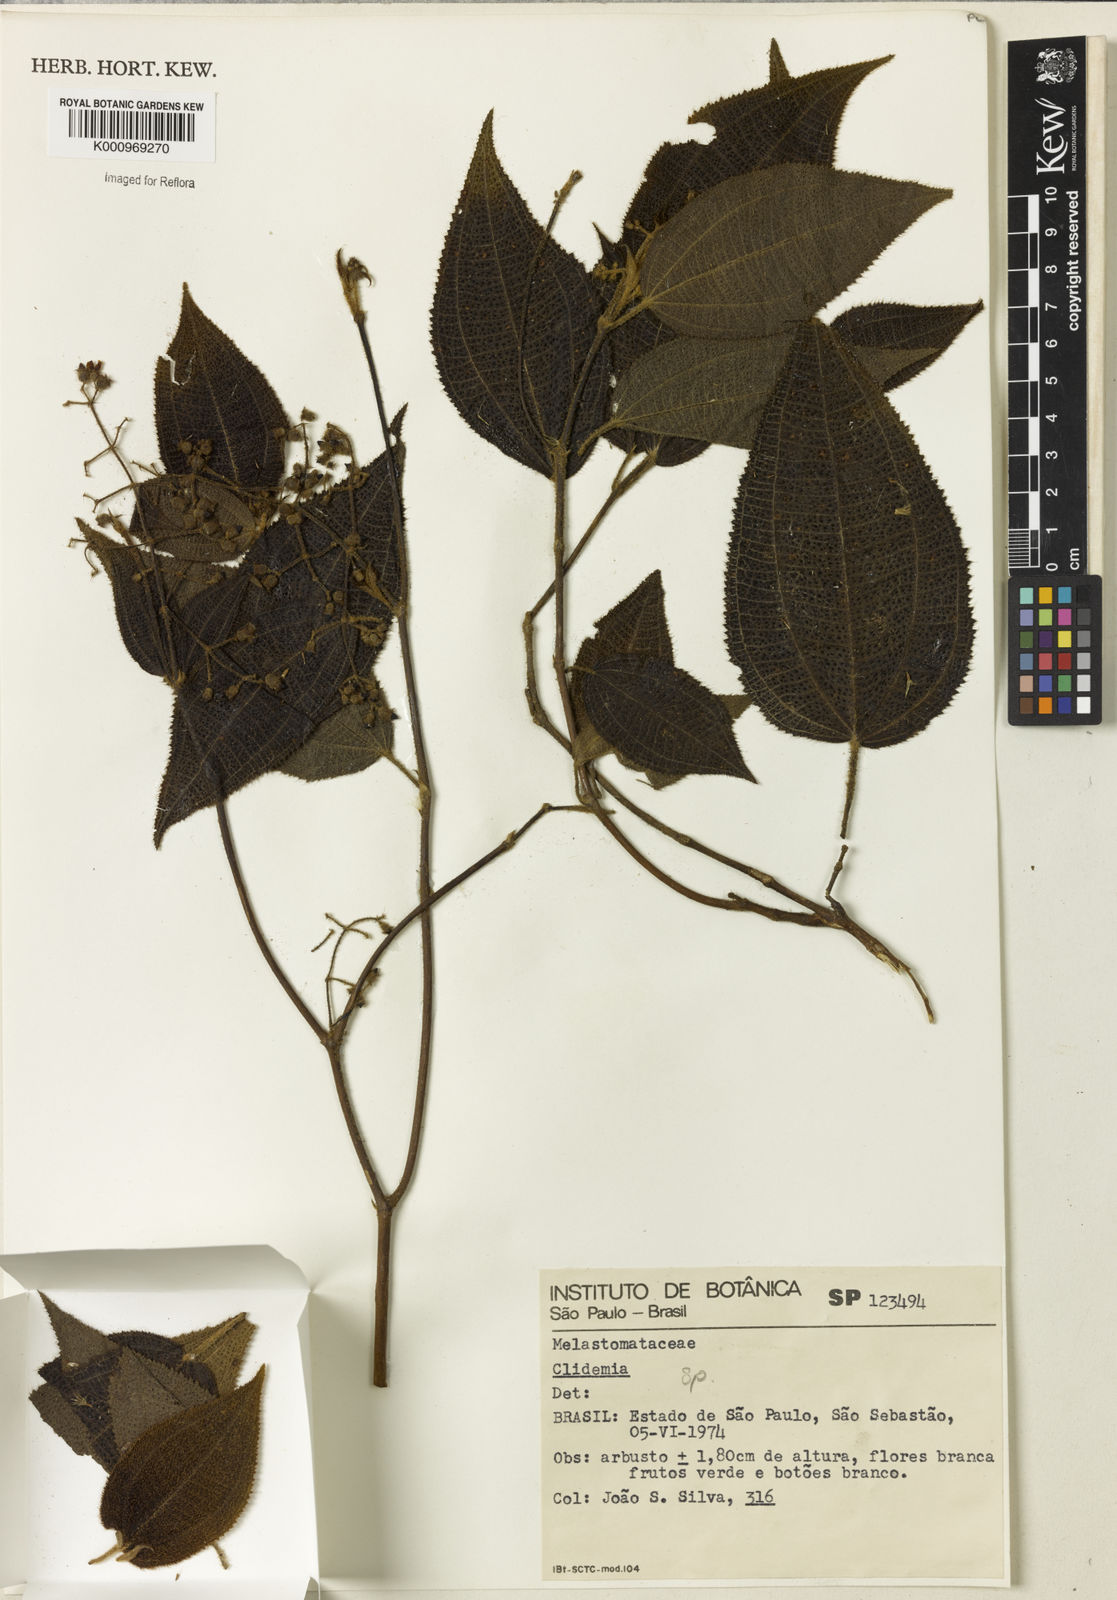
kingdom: Plantae
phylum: Tracheophyta
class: Magnoliopsida
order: Myrtales
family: Melastomataceae
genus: Miconia
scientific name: Miconia
